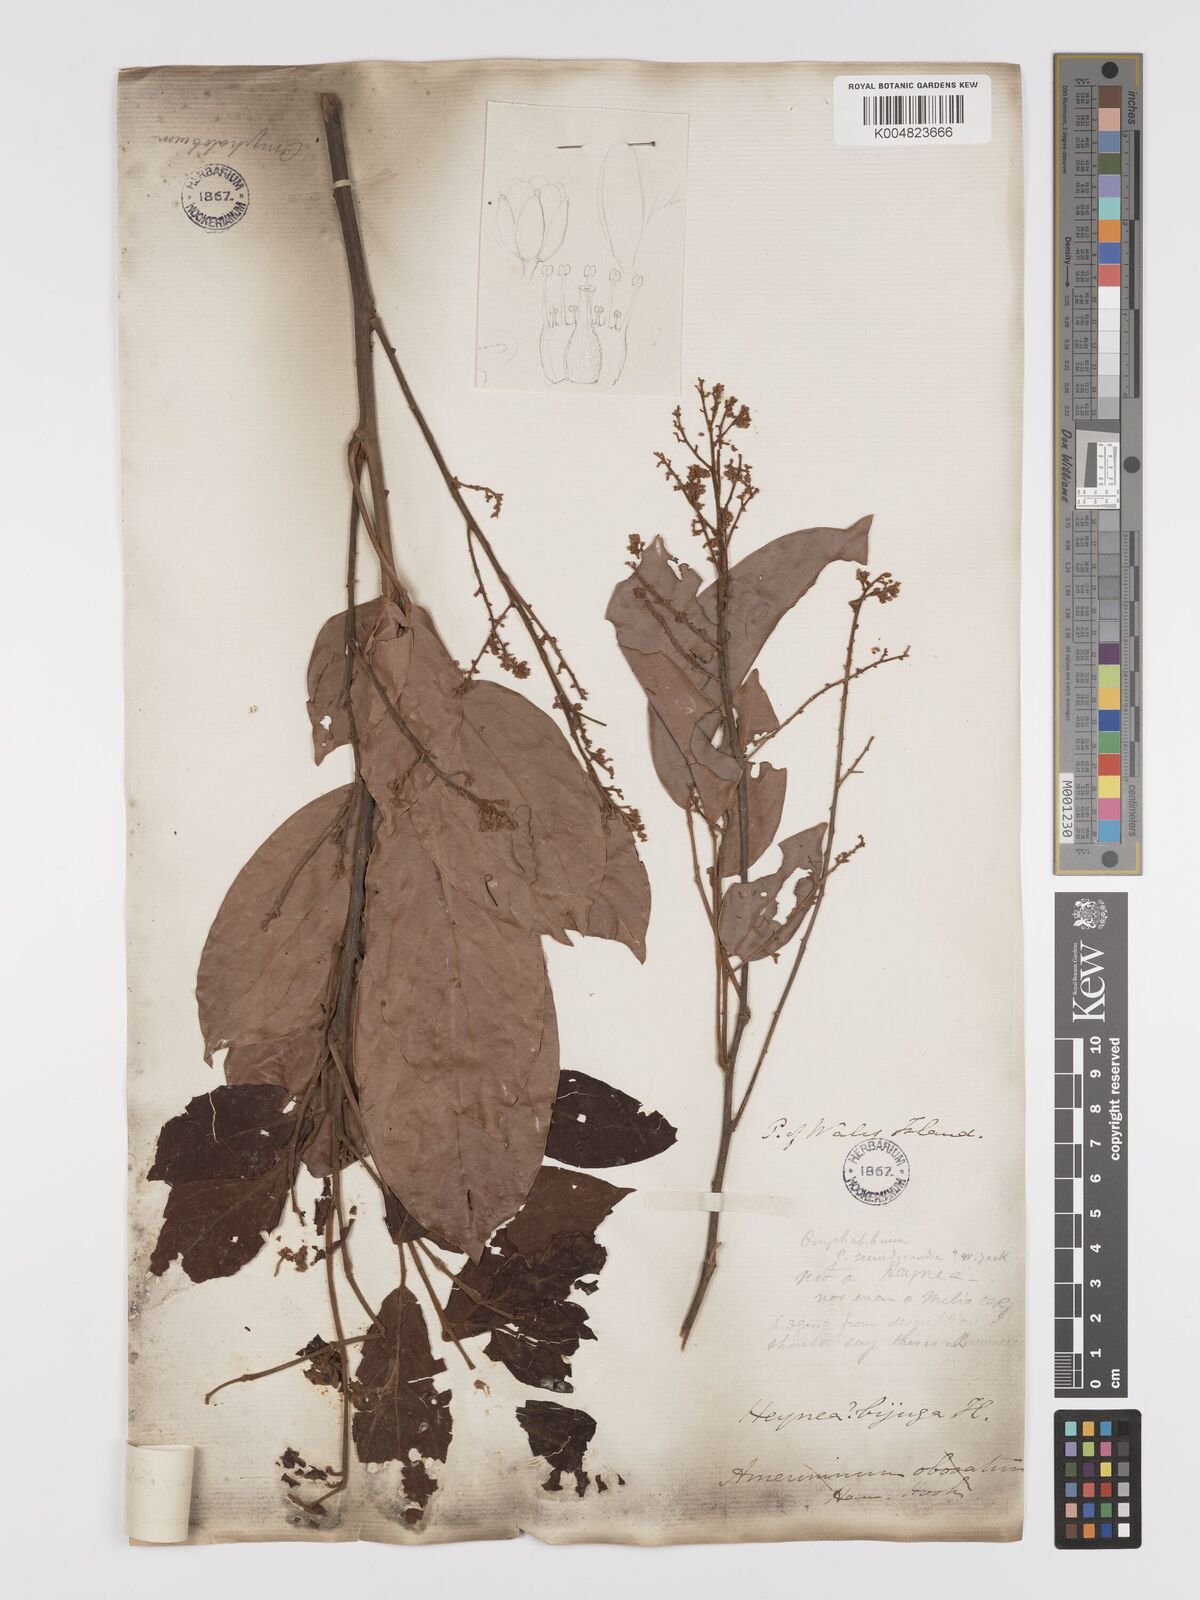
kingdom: Plantae
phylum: Tracheophyta
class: Magnoliopsida
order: Oxalidales
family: Connaraceae
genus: Connarus
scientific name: Connarus semidecandrus
